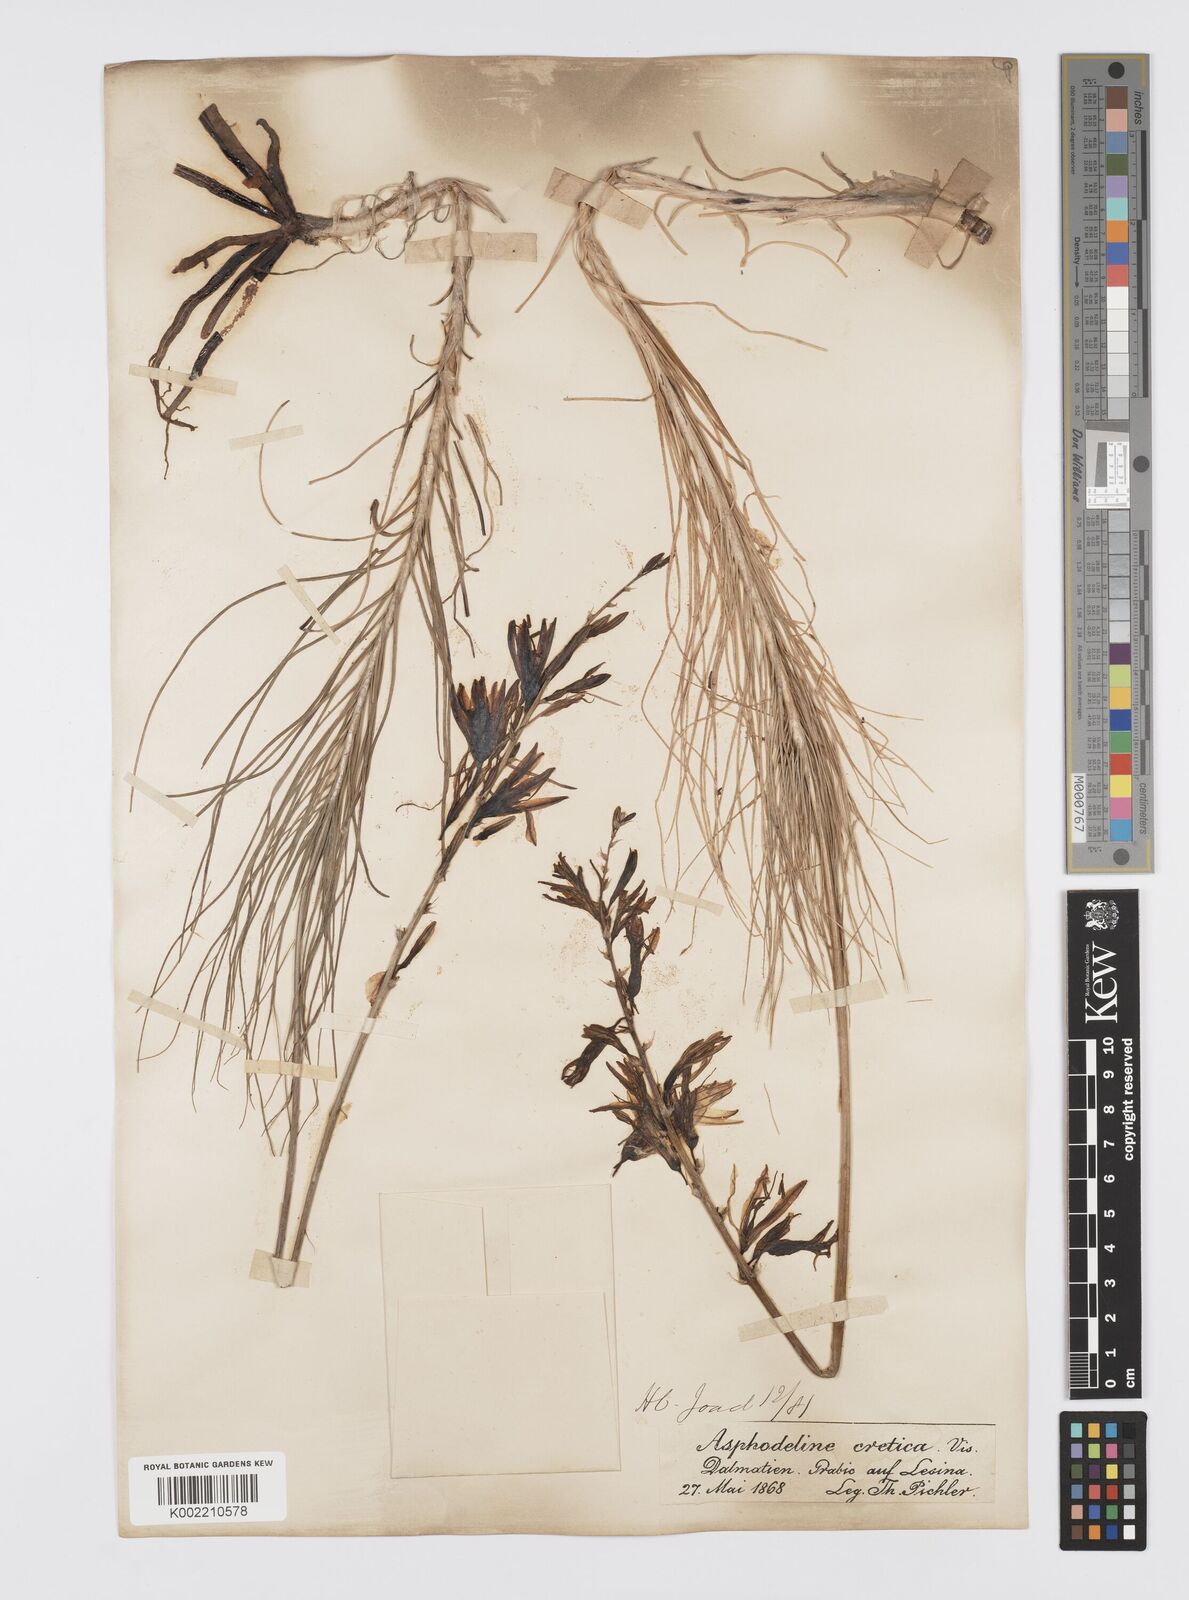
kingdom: Plantae
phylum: Tracheophyta
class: Liliopsida
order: Asparagales
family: Asphodelaceae
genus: Asphodeline
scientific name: Asphodeline liburnica
